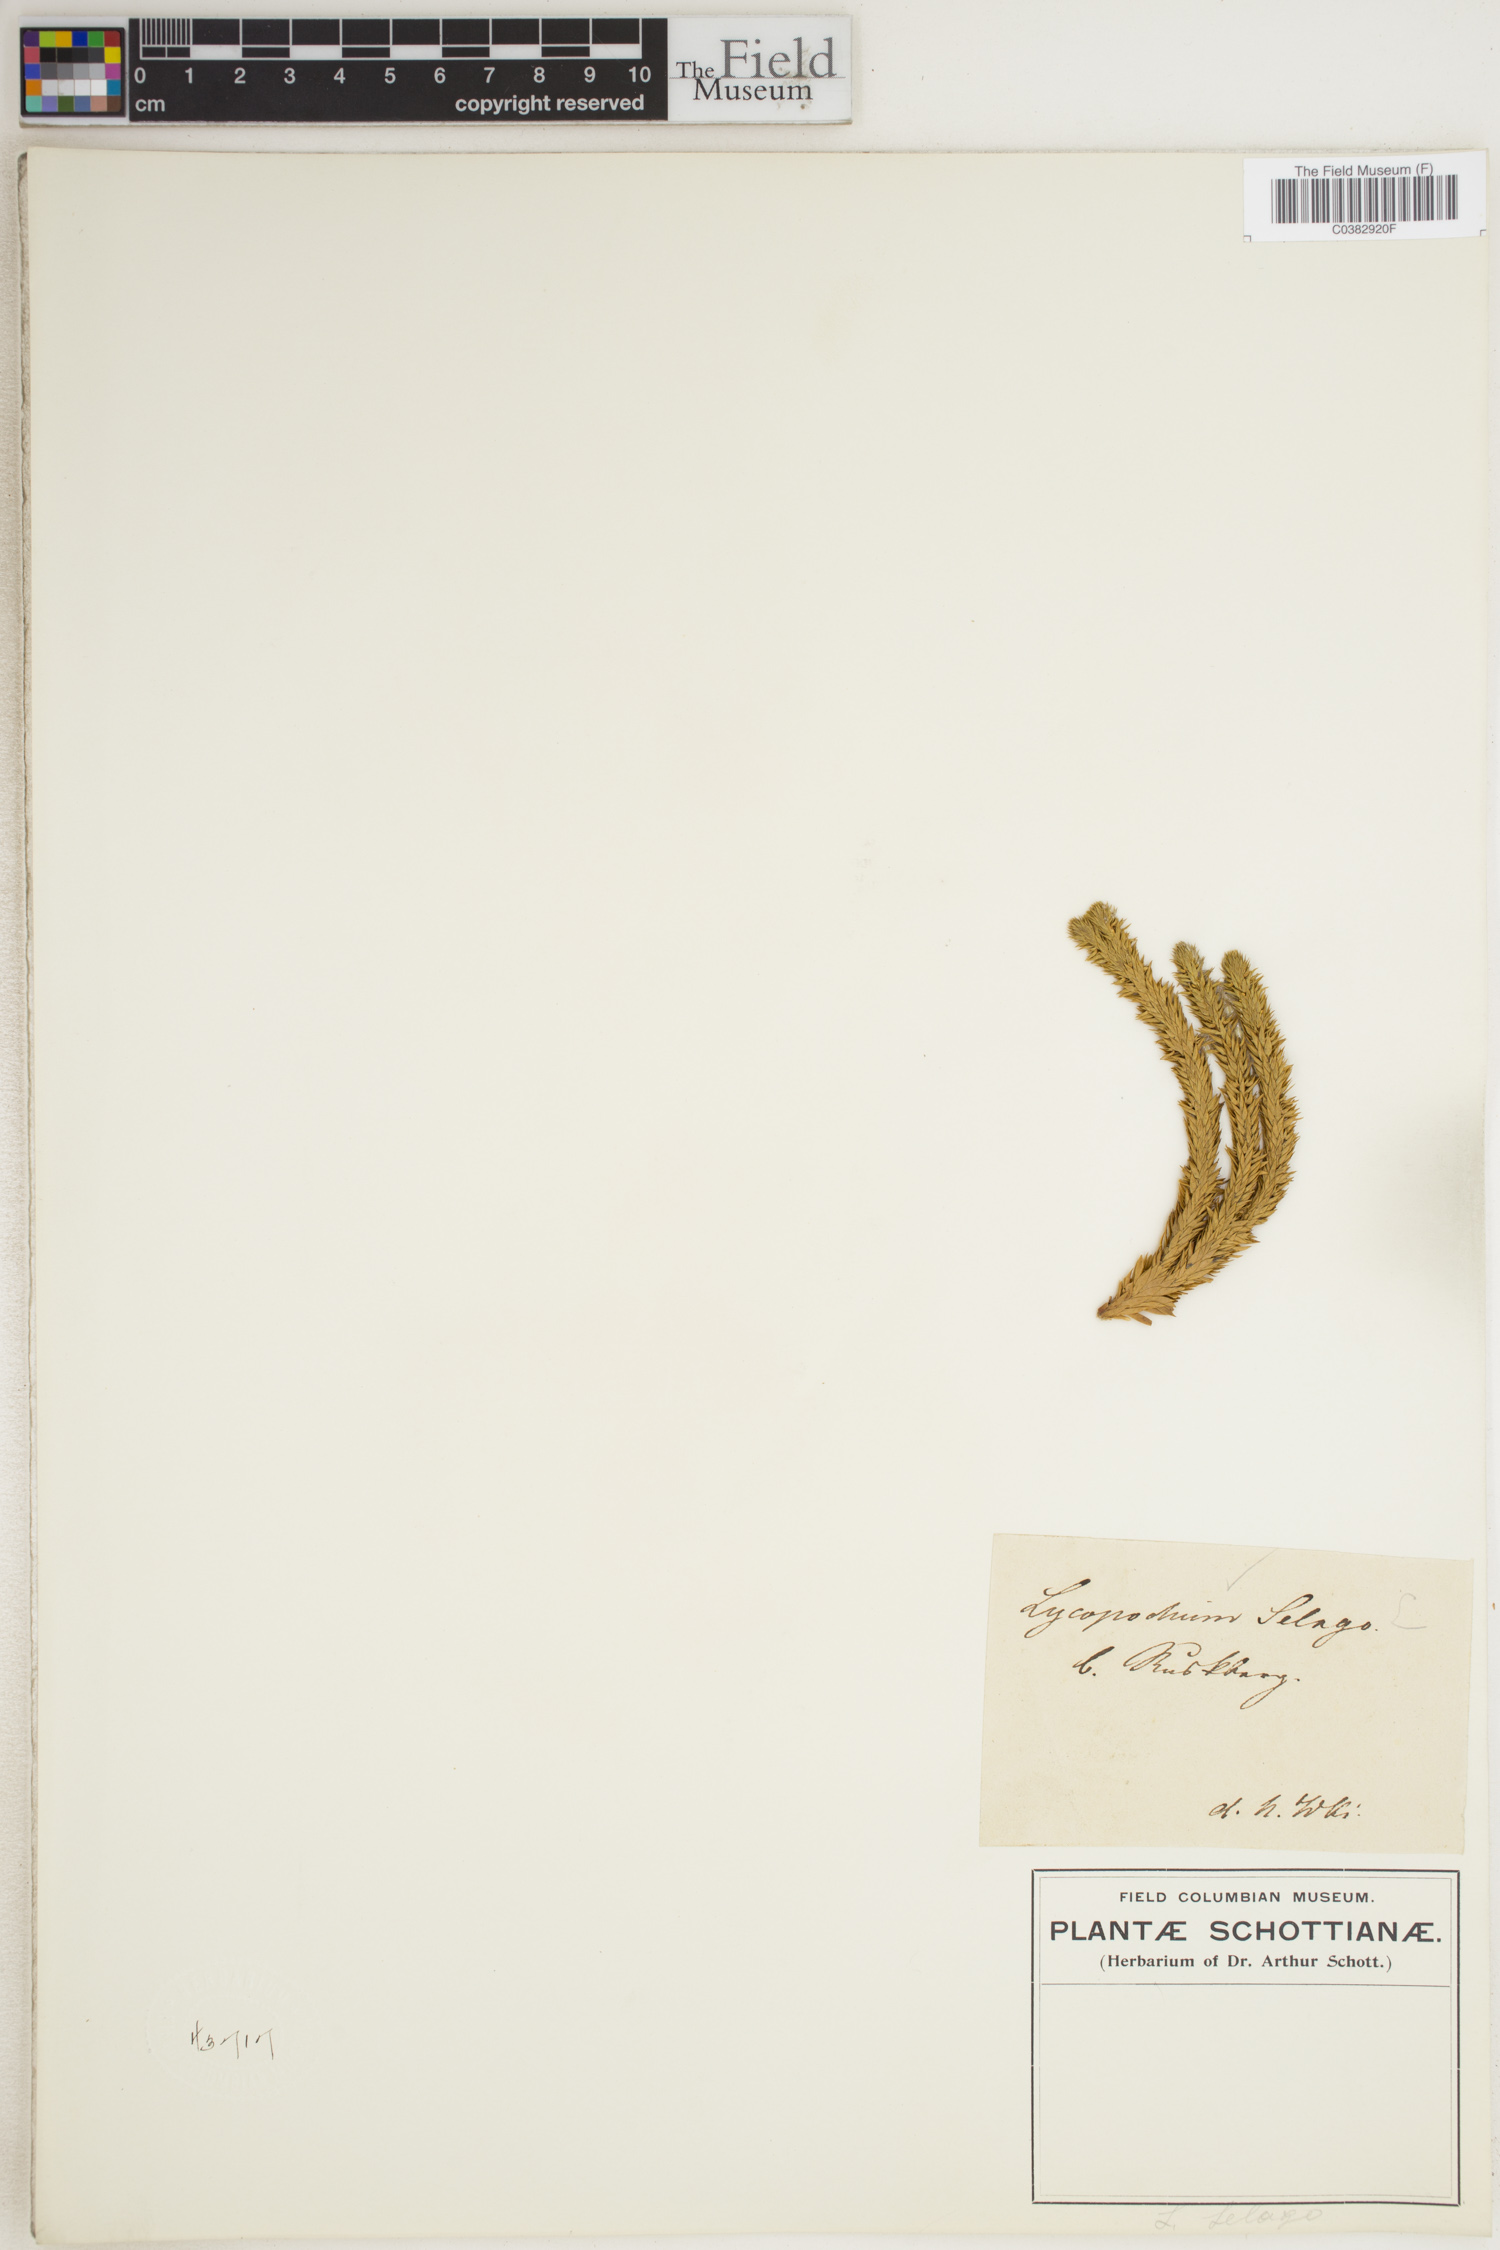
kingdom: Plantae
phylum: Tracheophyta
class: Lycopodiopsida
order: Lycopodiales
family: Lycopodiaceae
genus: Huperzia
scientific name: Huperzia selago
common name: Northern firmoss
